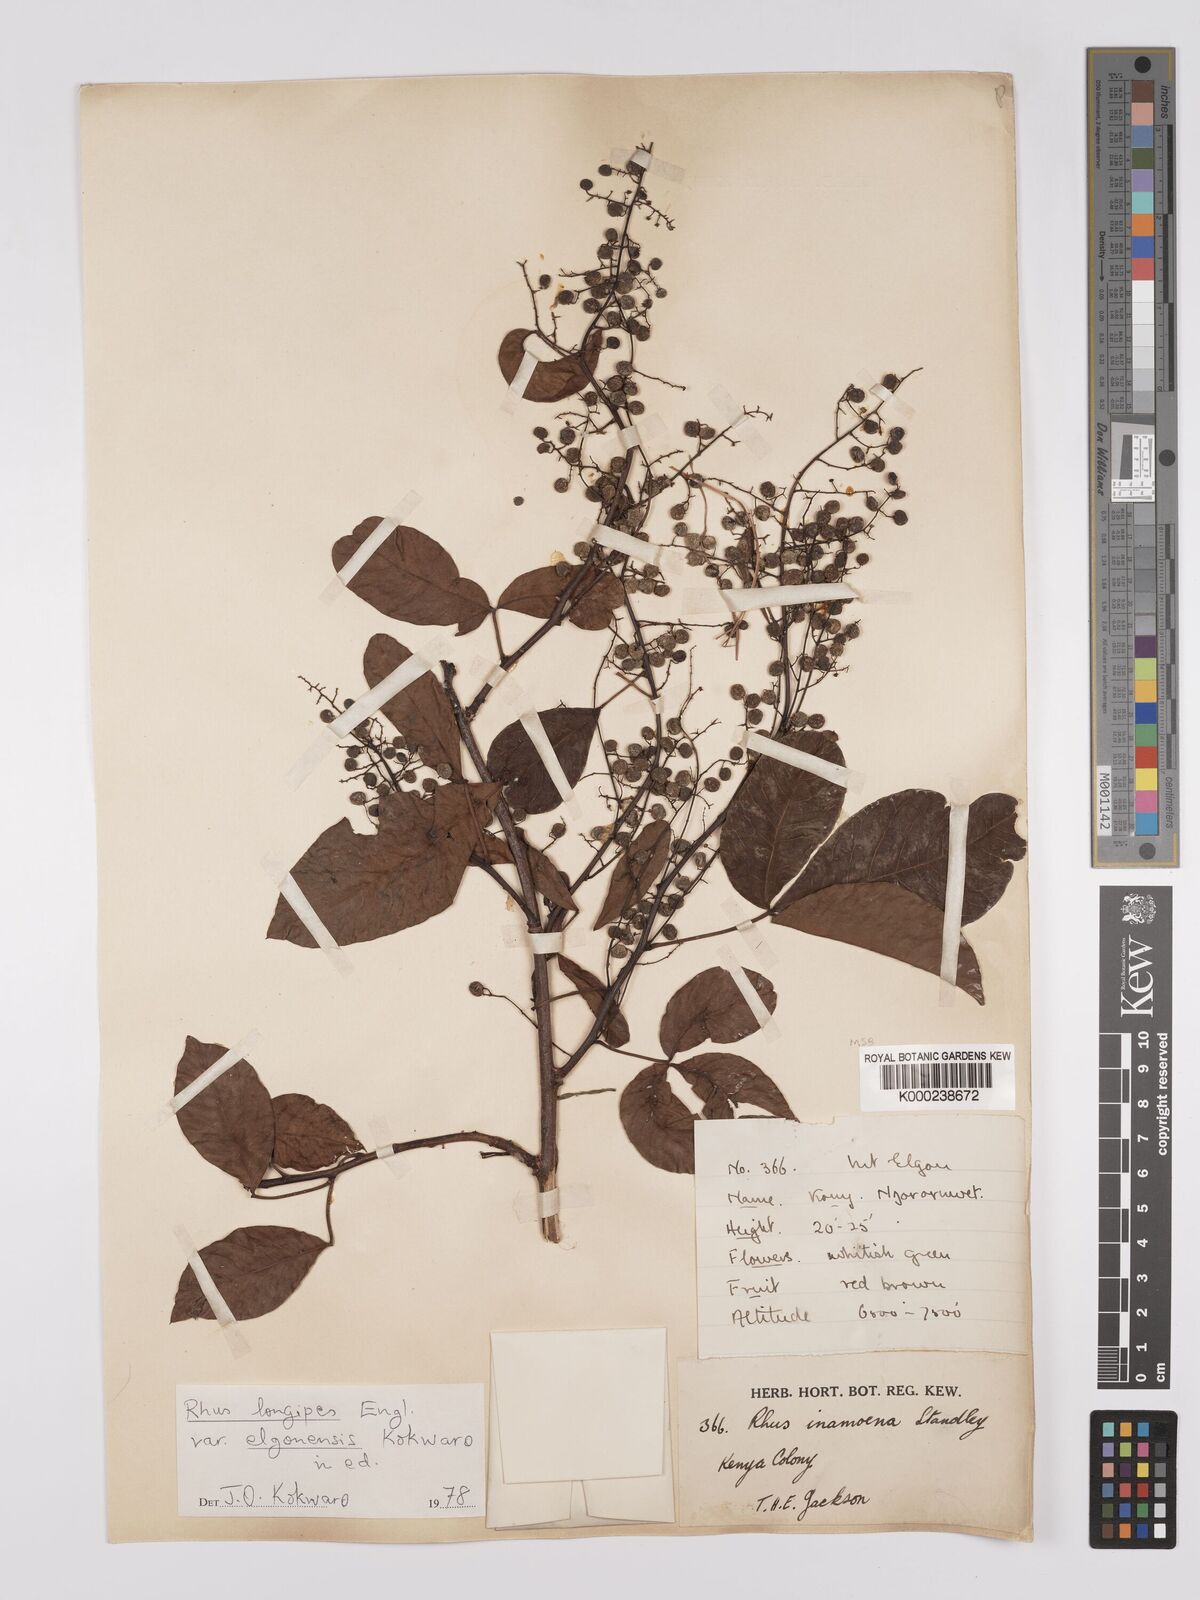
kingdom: Plantae
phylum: Tracheophyta
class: Magnoliopsida
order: Sapindales
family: Anacardiaceae
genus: Searsia
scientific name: Searsia longipes
